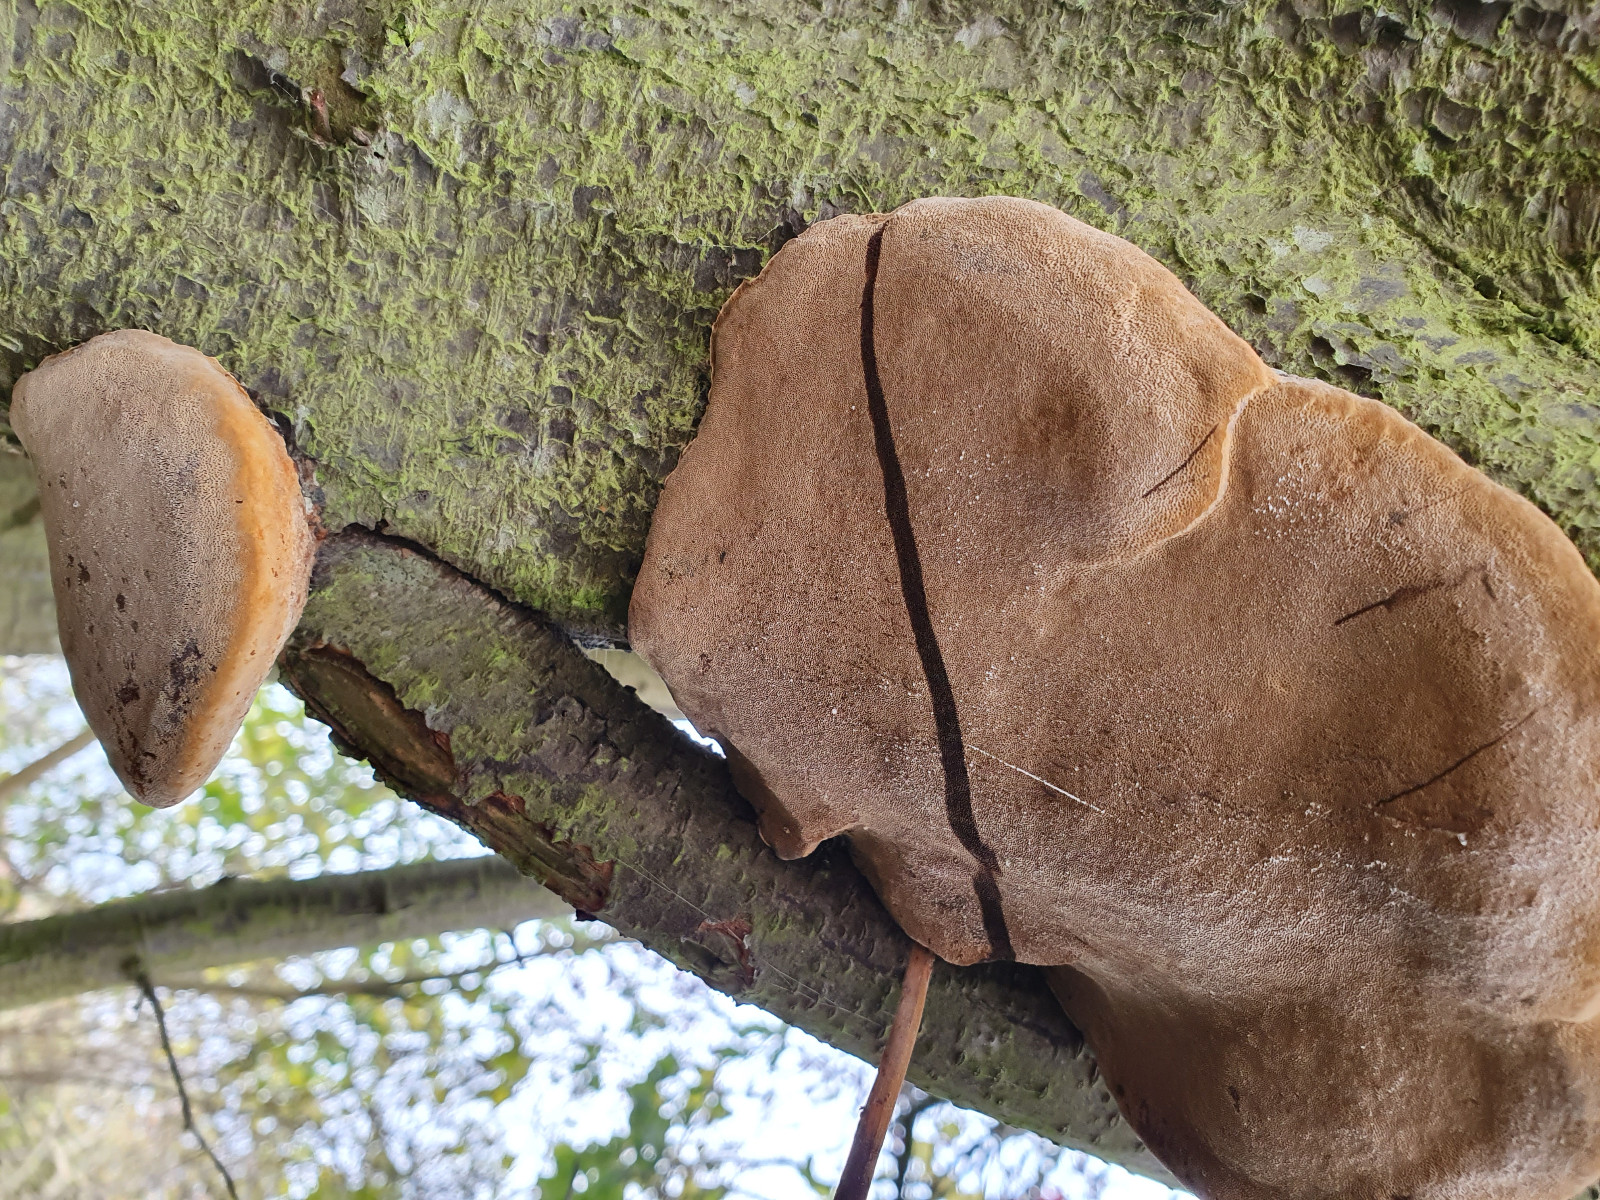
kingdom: Fungi
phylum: Basidiomycota
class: Agaricomycetes
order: Hymenochaetales
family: Hymenochaetaceae
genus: Phellinus
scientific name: Phellinus pomaceus
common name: blomme-ildporesvamp
